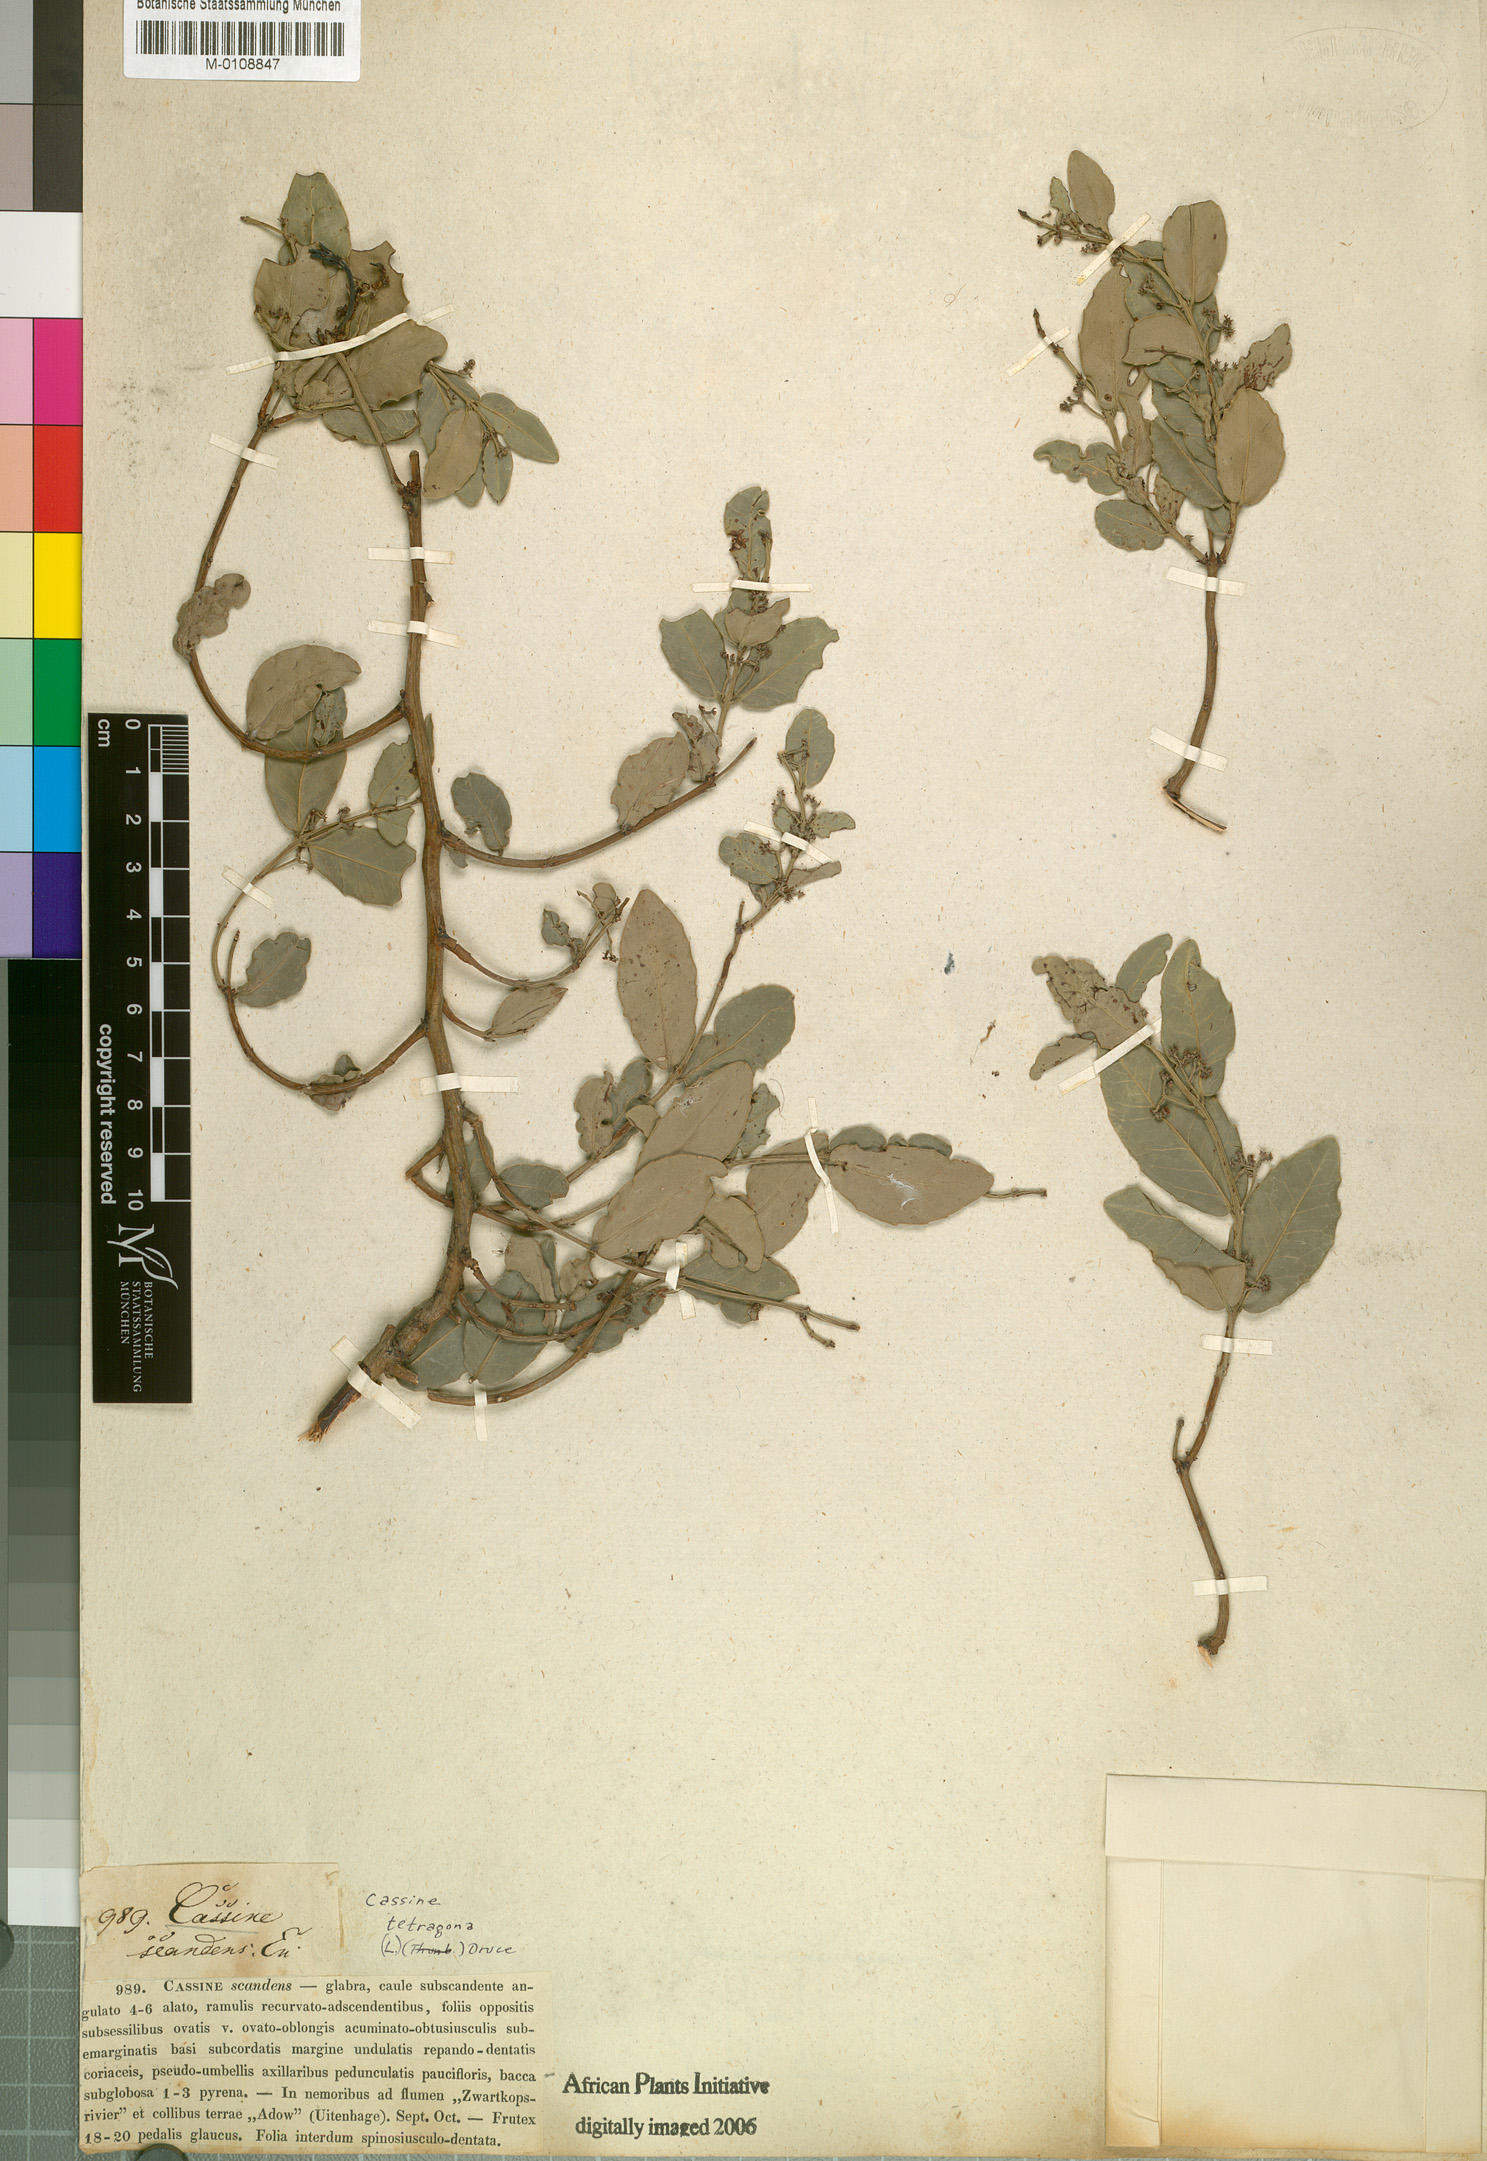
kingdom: Plantae
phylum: Tracheophyta
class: Magnoliopsida
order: Celastrales
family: Celastraceae
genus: Lauridia
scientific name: Lauridia tetragona
